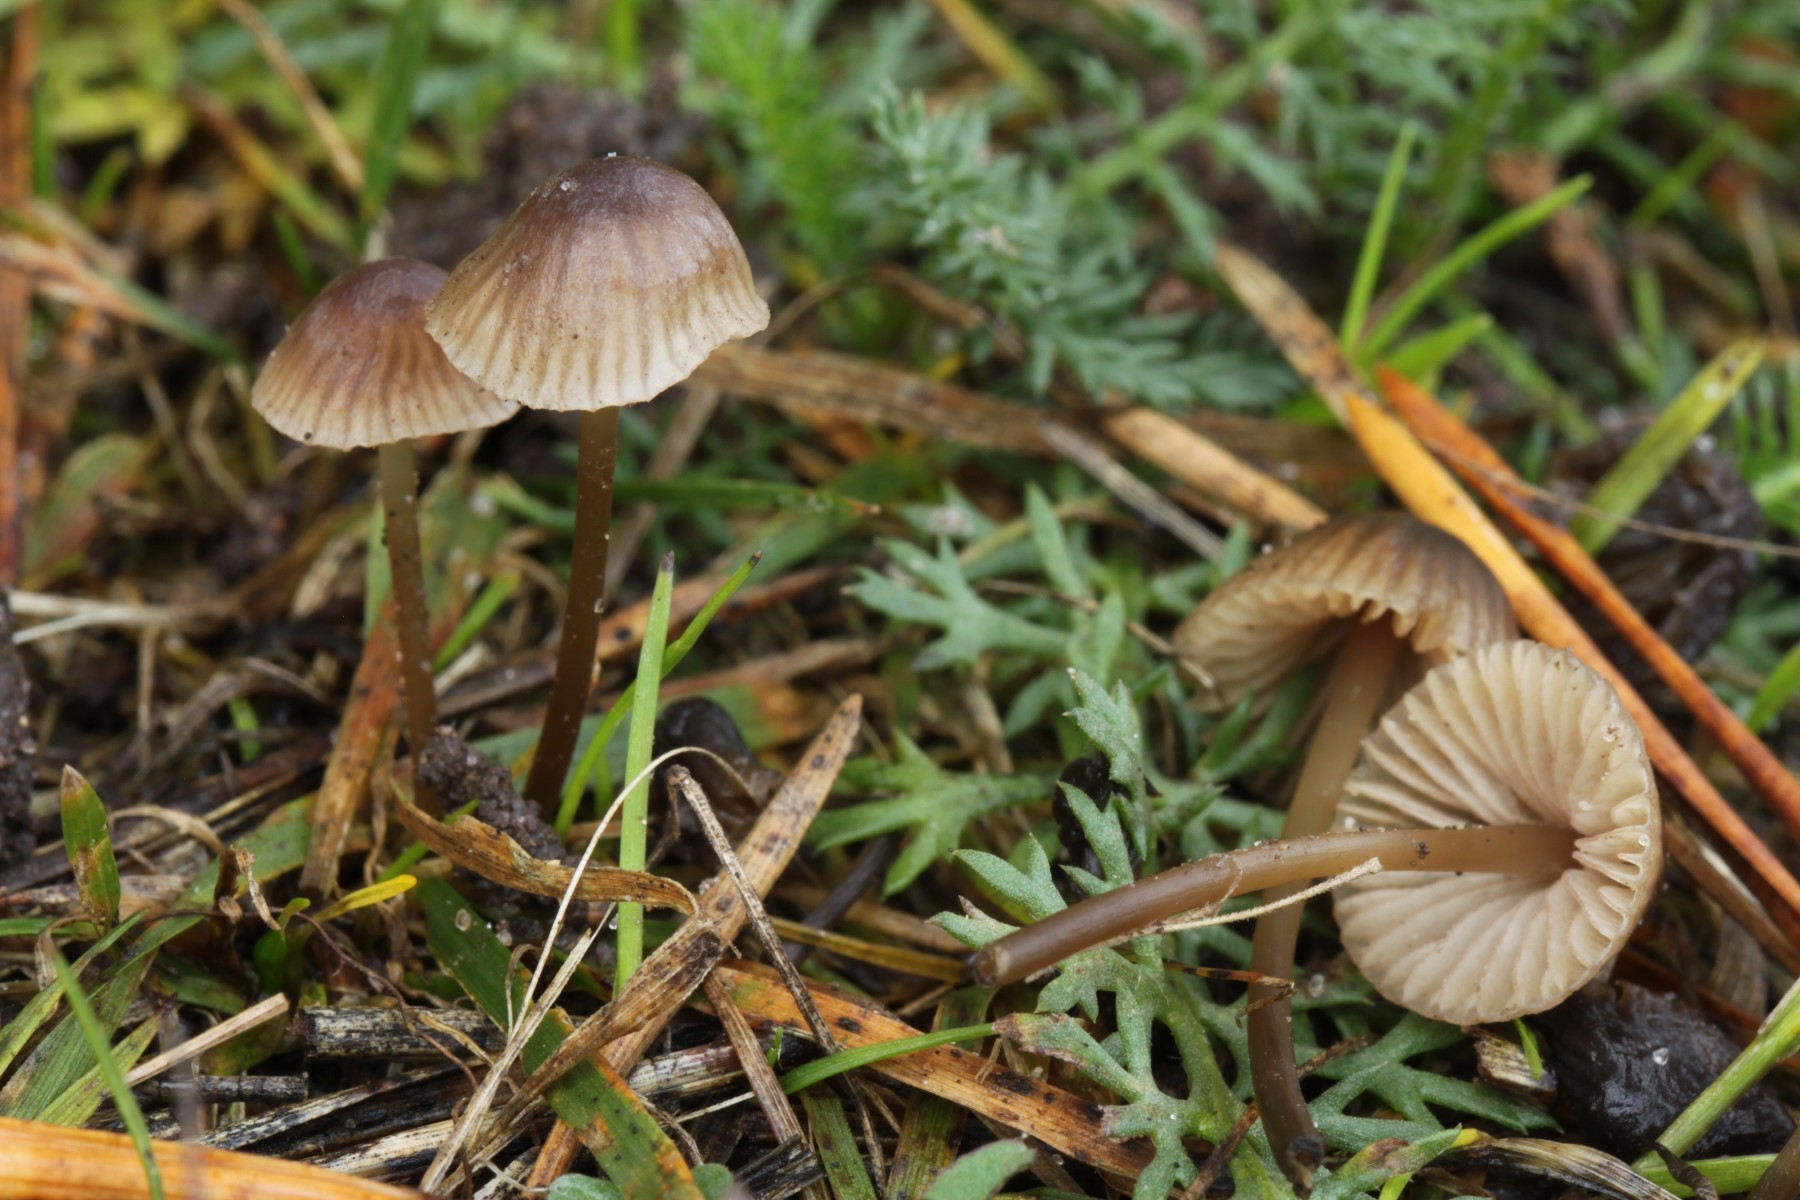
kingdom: Fungi
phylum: Basidiomycota
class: Agaricomycetes
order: Agaricales
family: Mycenaceae
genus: Mycena
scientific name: Mycena olivaceomarginata
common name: brunægget huesvamp
